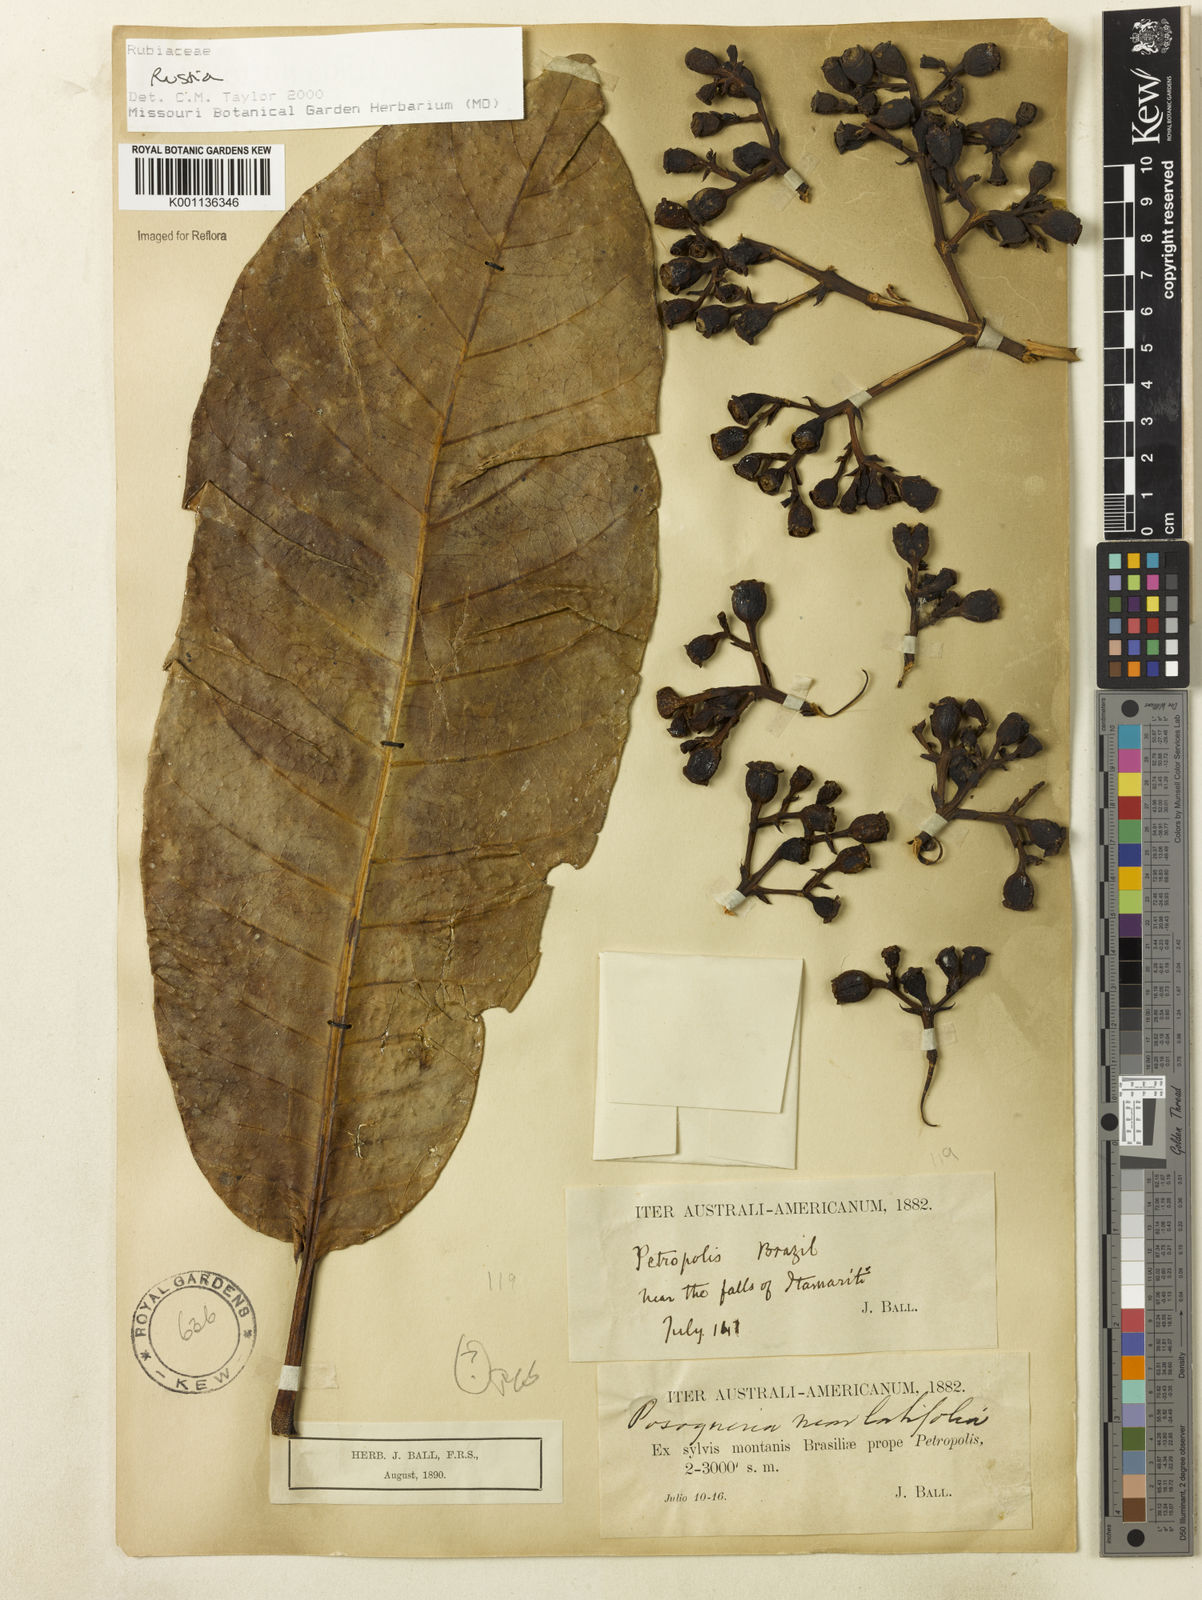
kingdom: Plantae
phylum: Tracheophyta
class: Magnoliopsida
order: Gentianales
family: Rubiaceae
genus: Rustia
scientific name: Rustia
